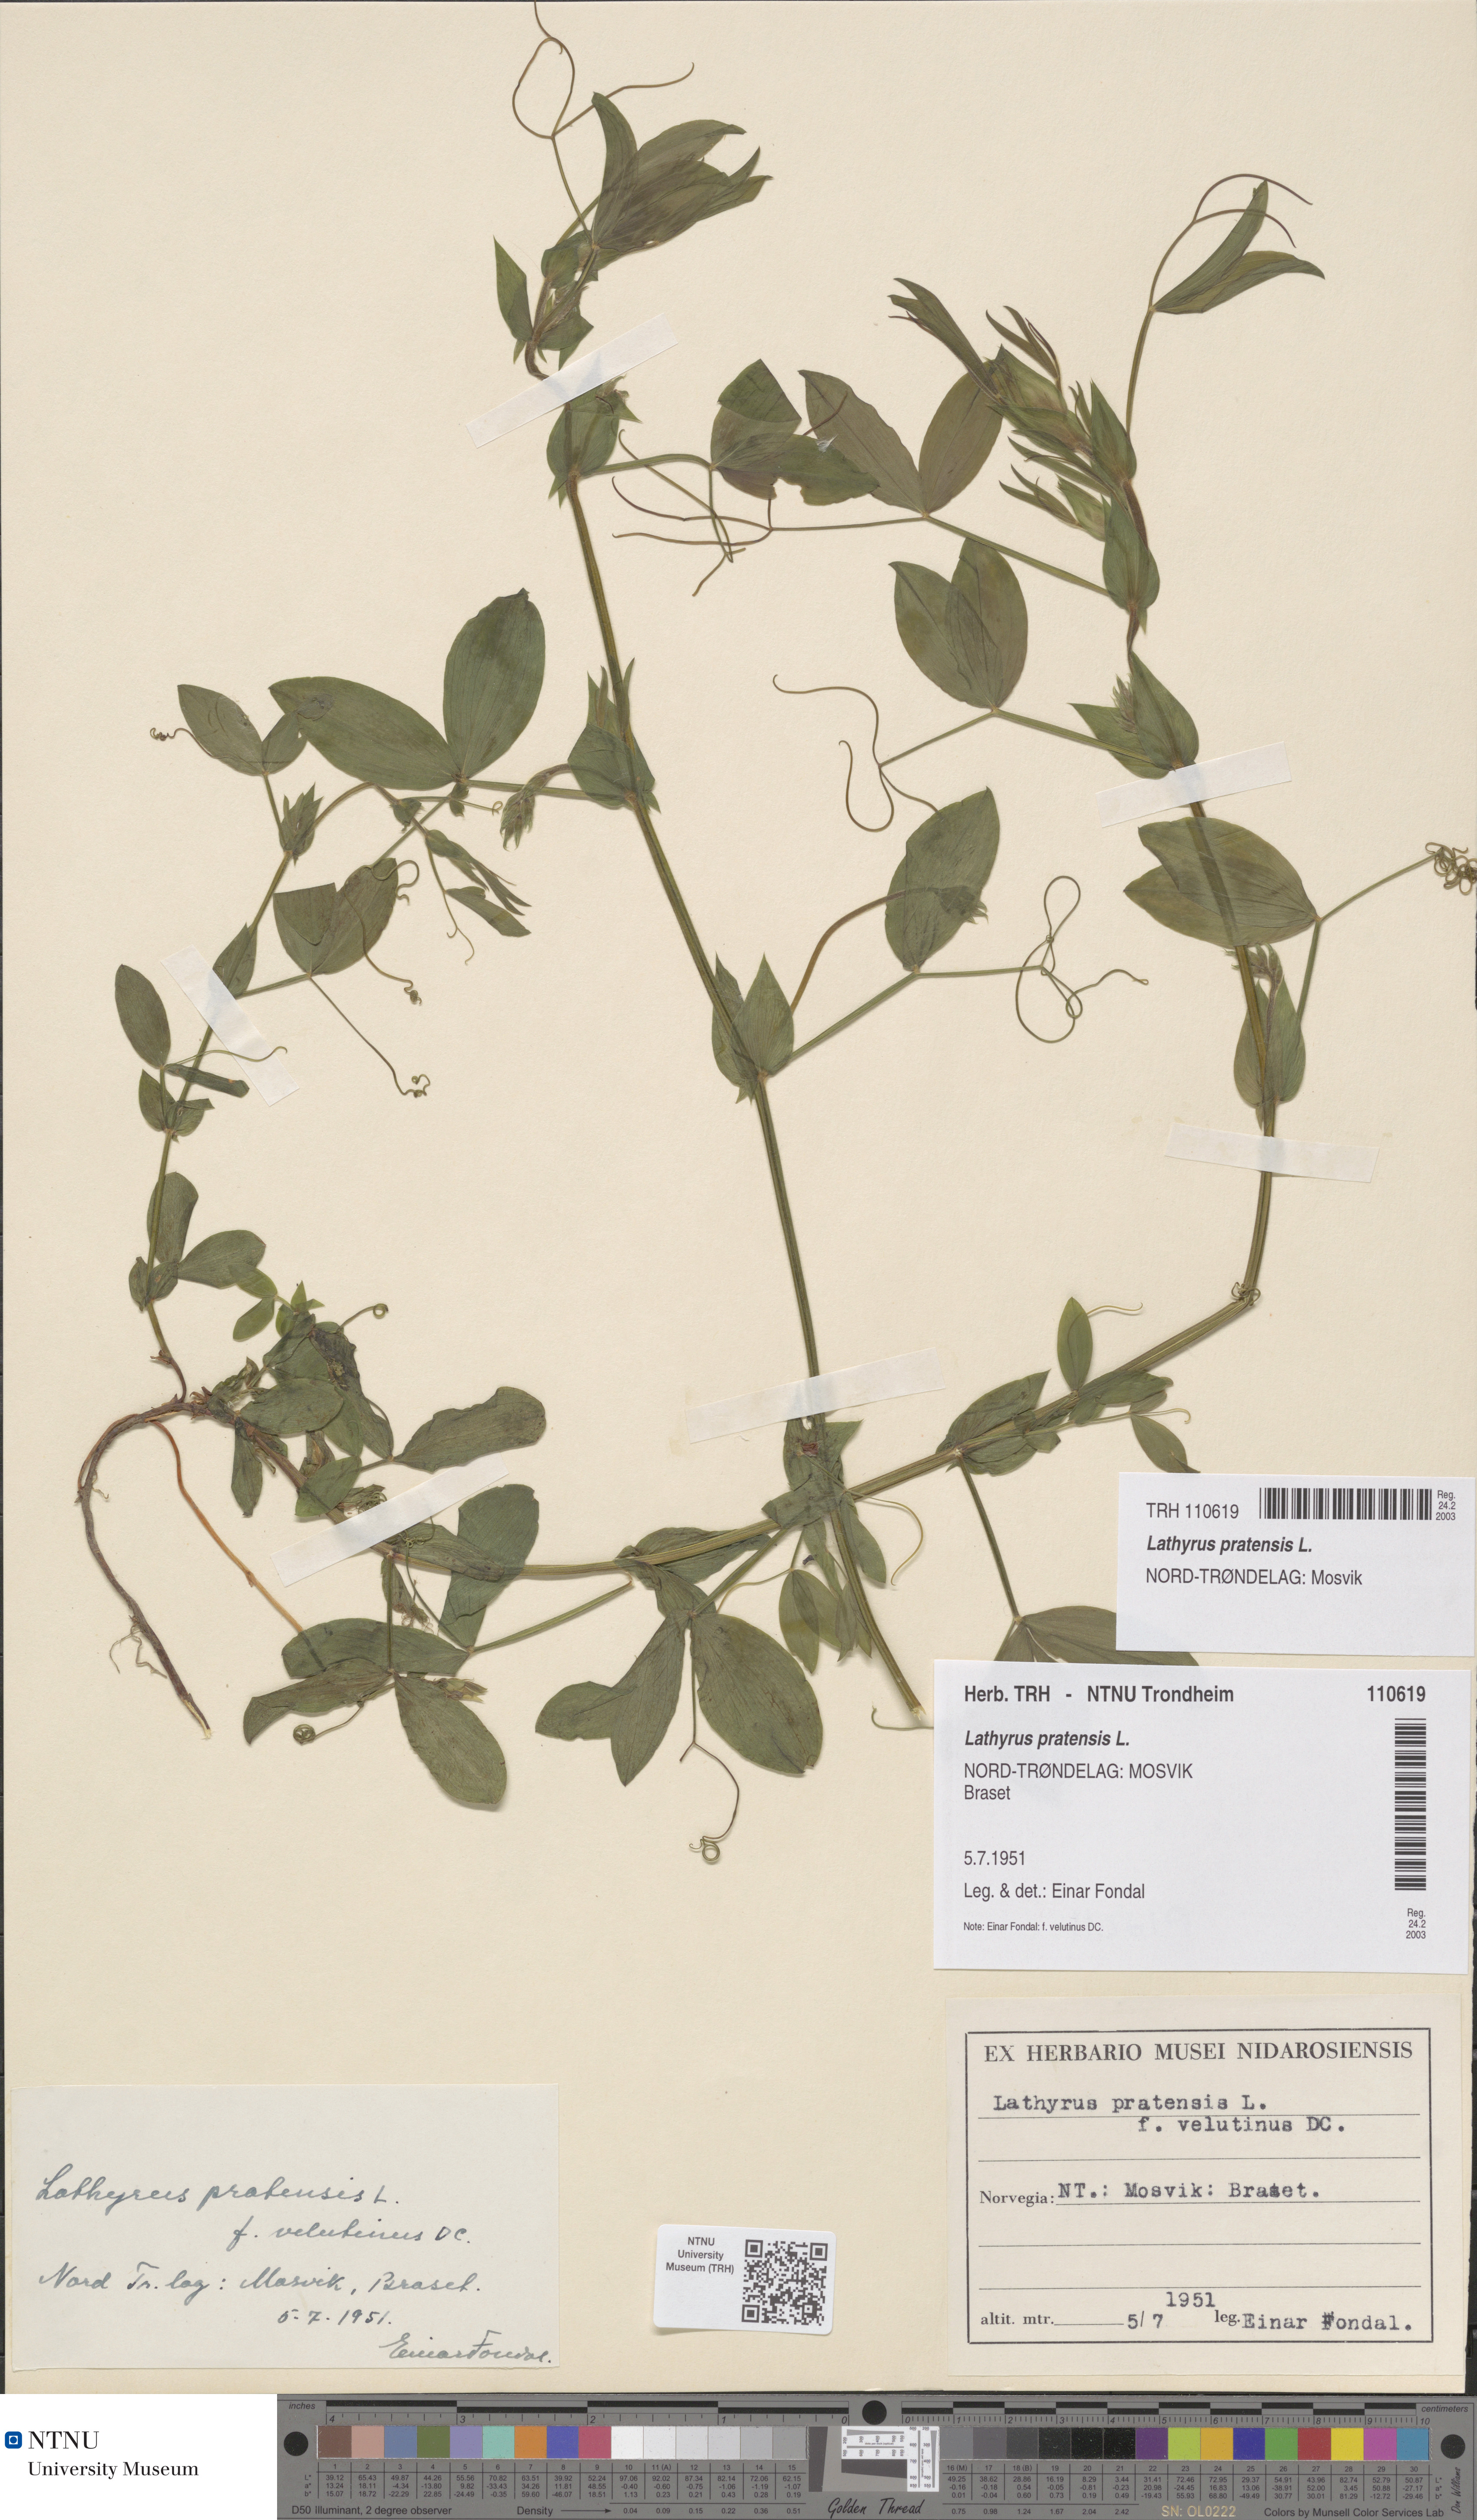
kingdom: Plantae
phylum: Tracheophyta
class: Magnoliopsida
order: Fabales
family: Fabaceae
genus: Lathyrus
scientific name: Lathyrus pratensis
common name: Meadow vetchling
